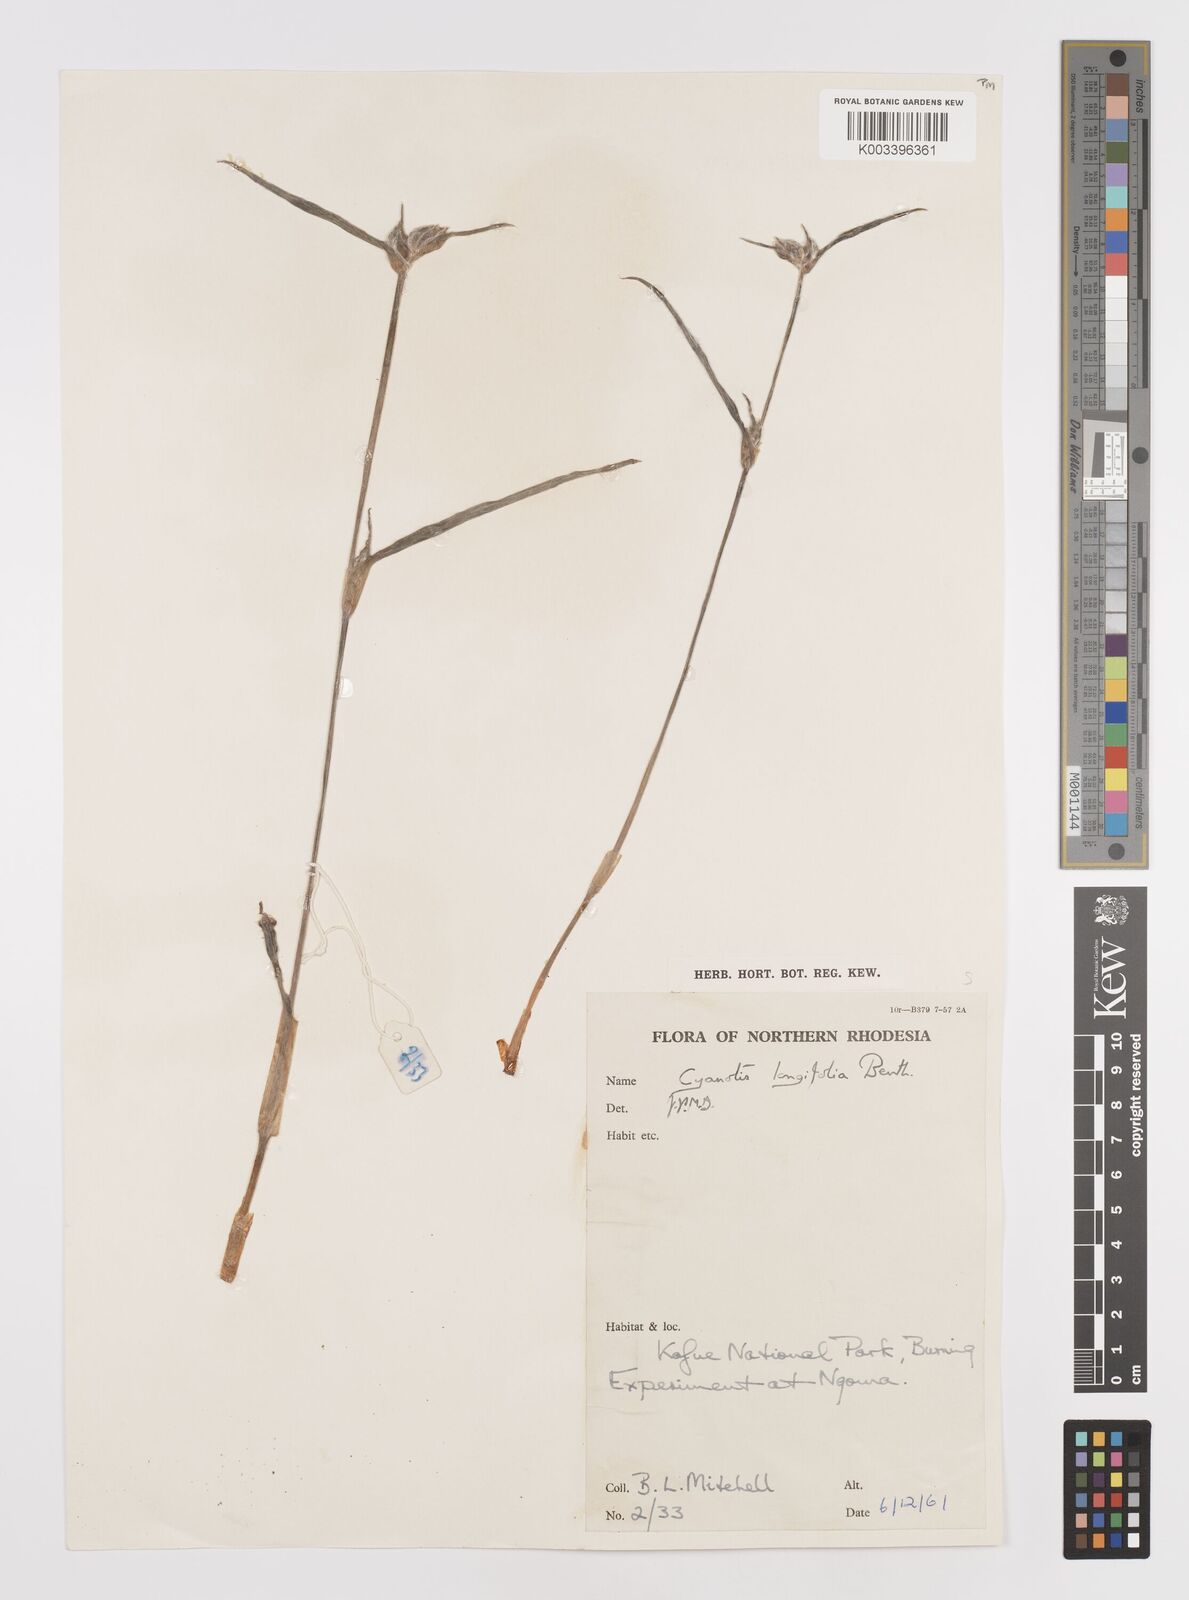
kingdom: Plantae
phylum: Tracheophyta
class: Liliopsida
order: Commelinales
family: Commelinaceae
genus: Cyanotis
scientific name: Cyanotis longifolia
